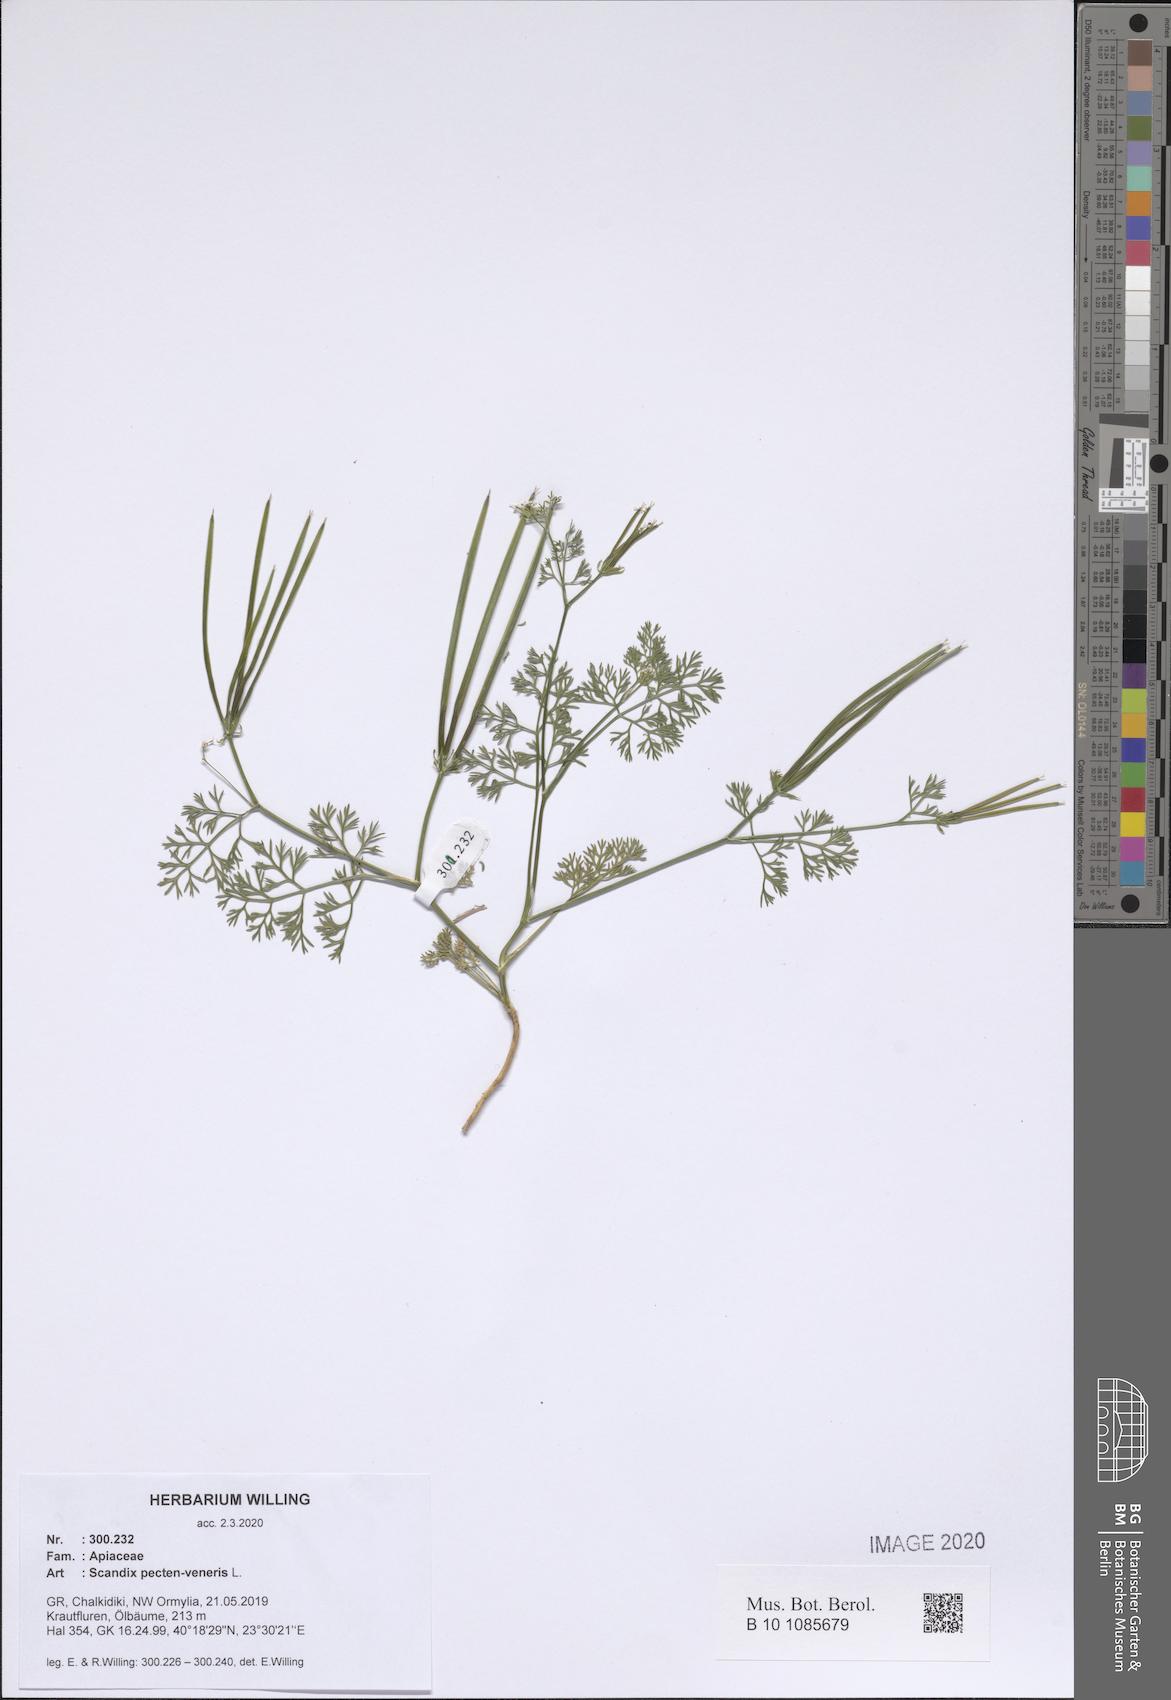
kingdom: Plantae
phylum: Tracheophyta
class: Magnoliopsida
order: Apiales
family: Apiaceae
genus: Scandix
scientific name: Scandix pecten-veneris
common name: Shepherd's-needle
